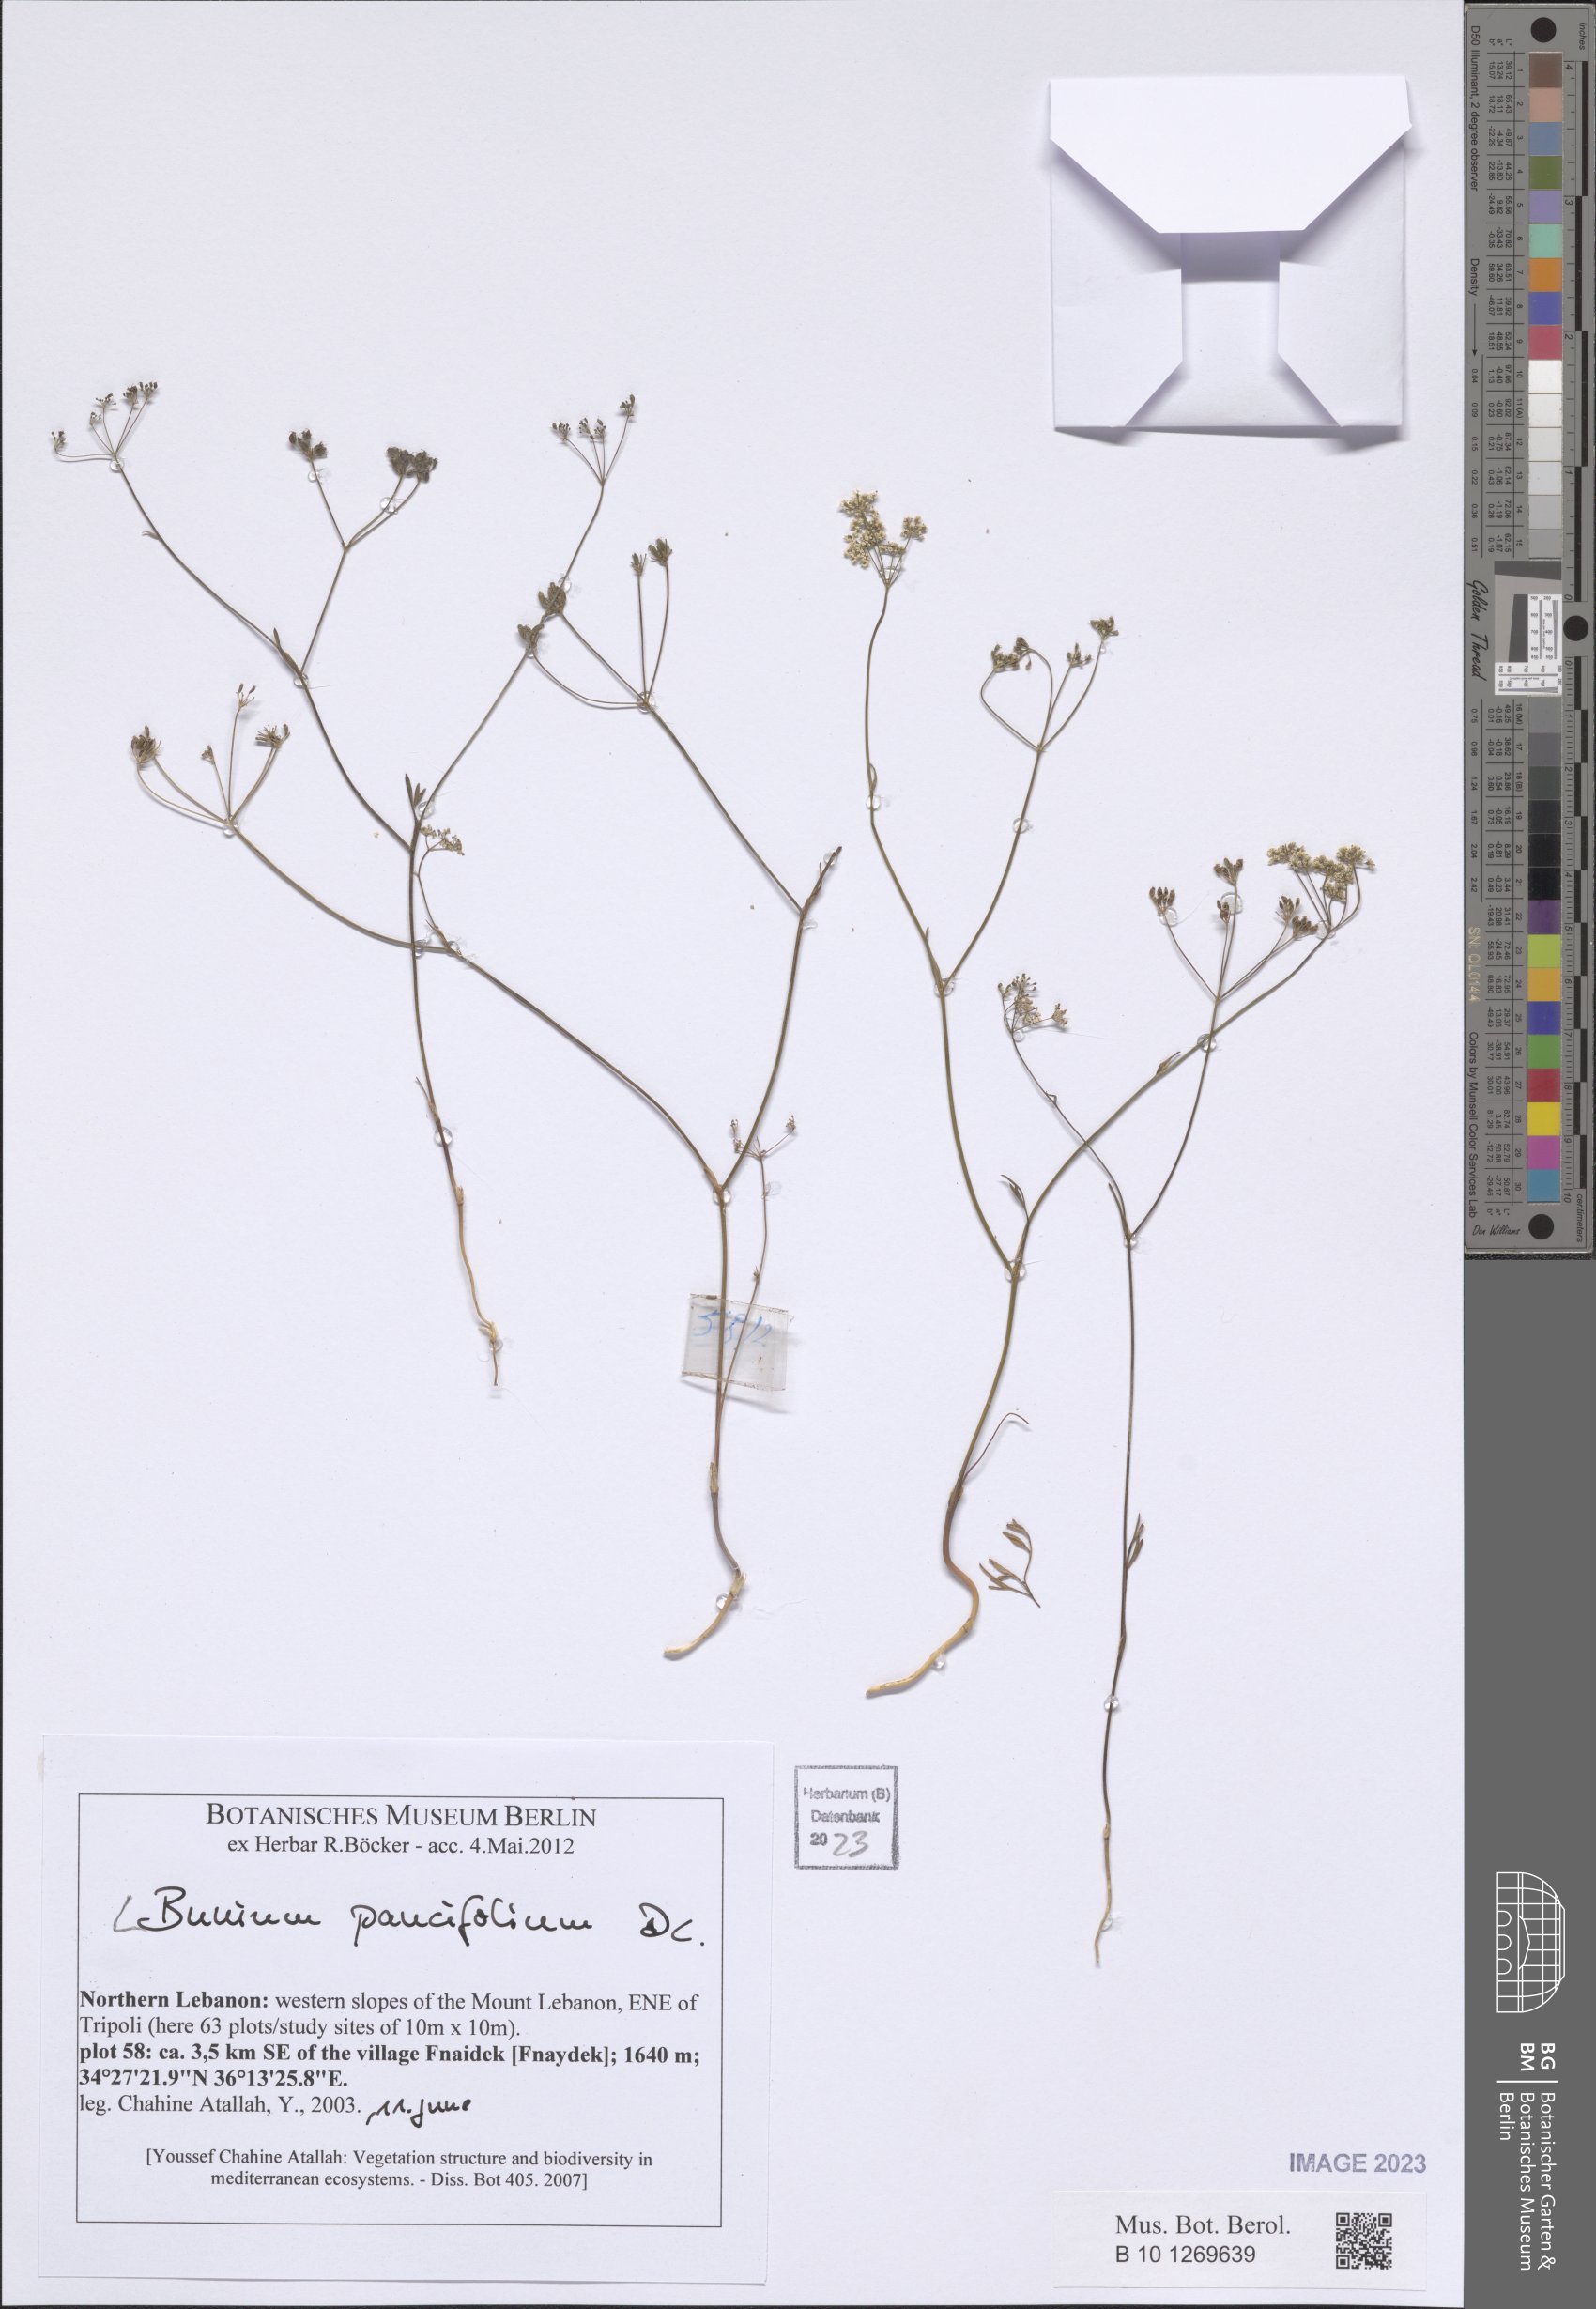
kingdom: Plantae
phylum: Tracheophyta
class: Magnoliopsida
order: Apiales
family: Apiaceae
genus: Bunium
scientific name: Bunium paucifolium
